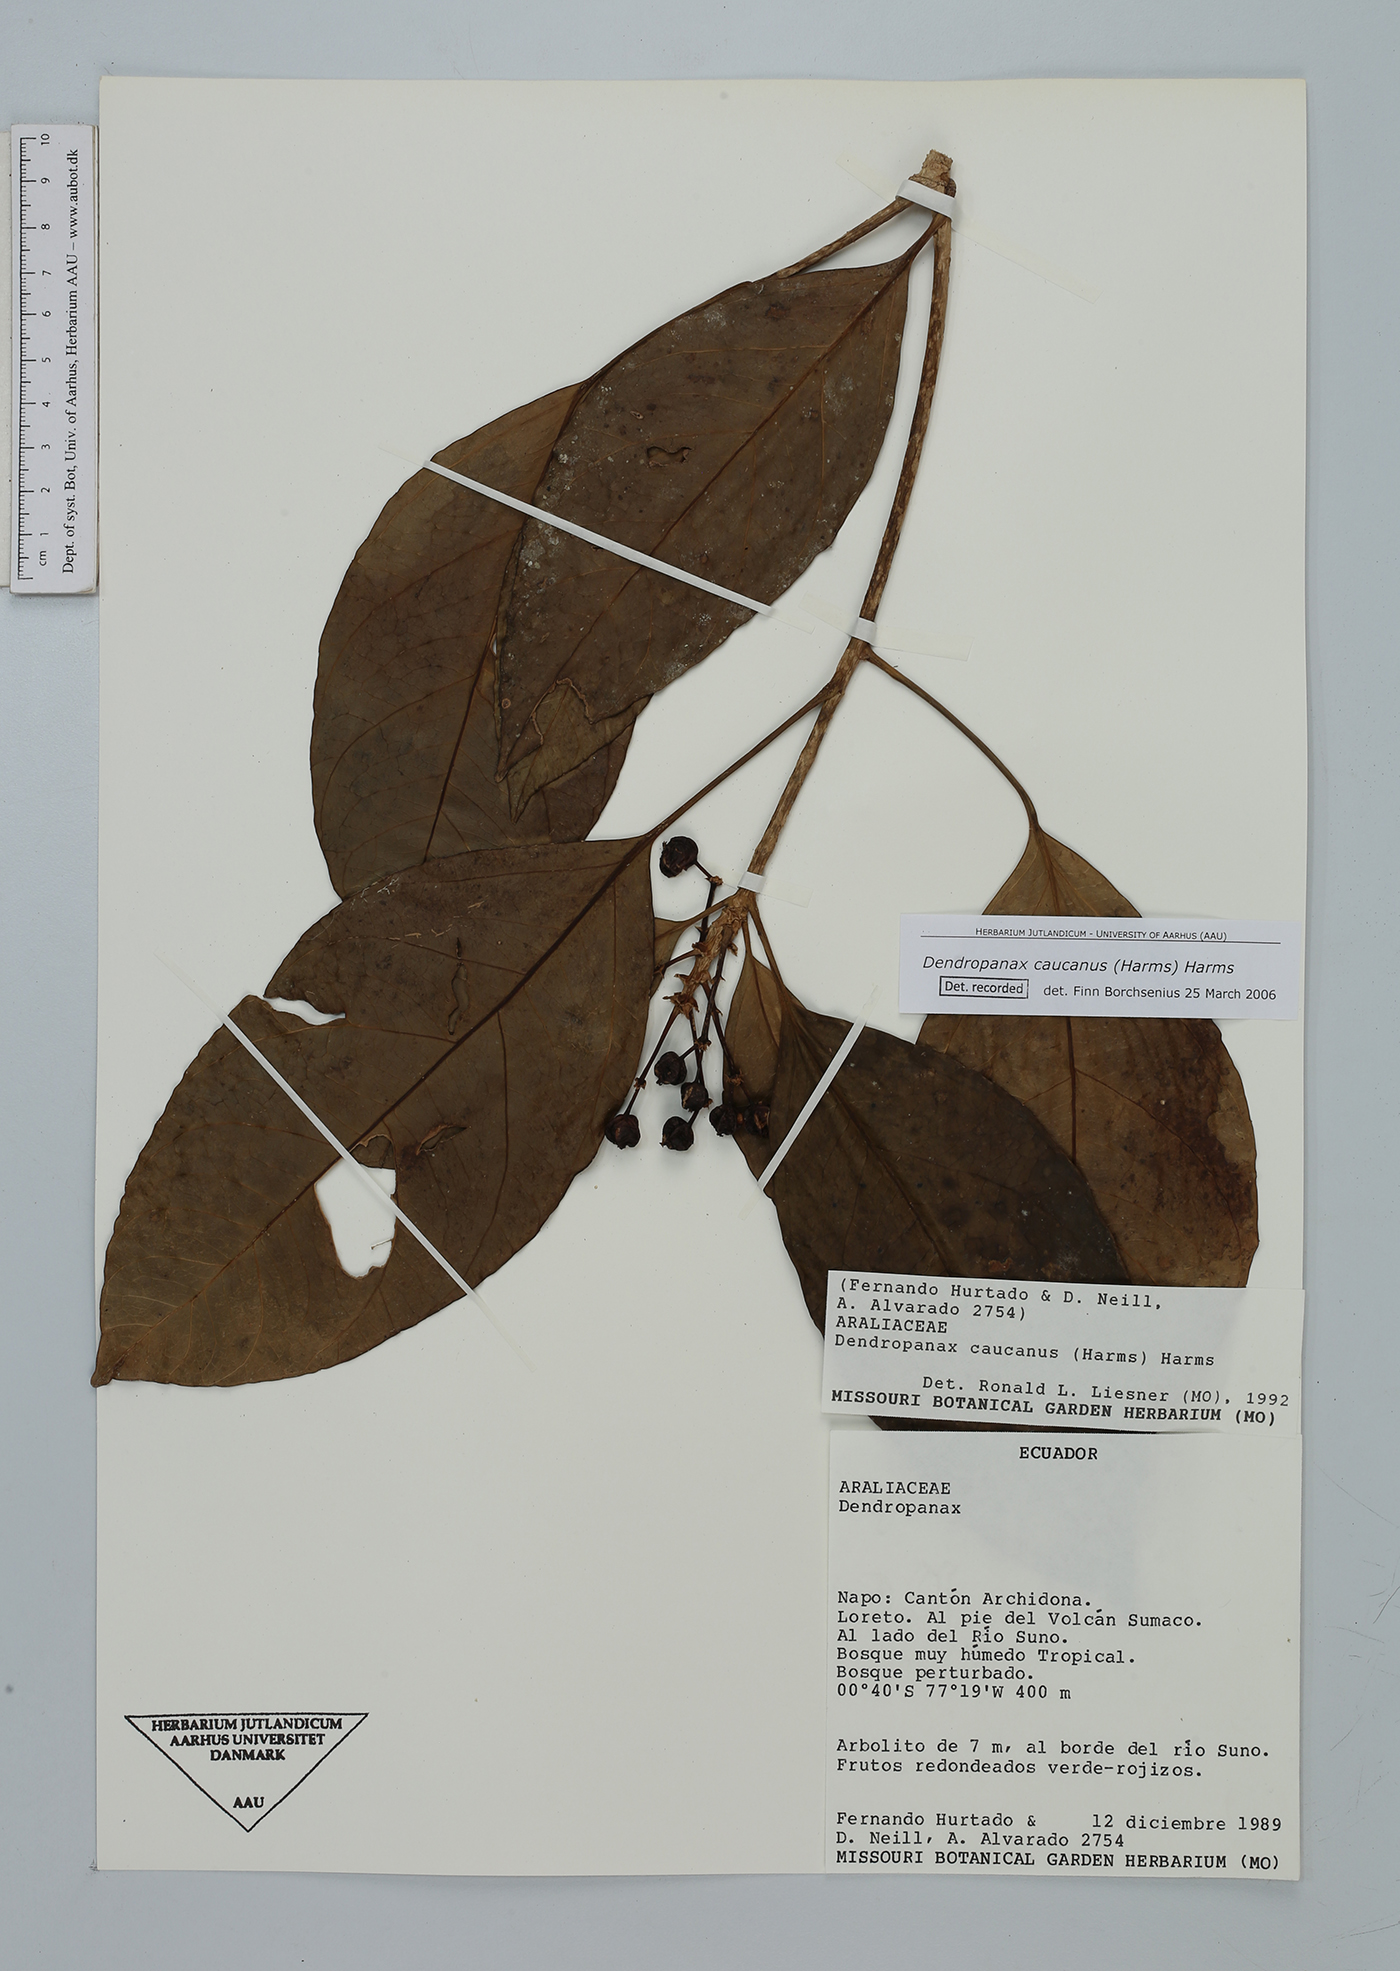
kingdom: Plantae
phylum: Tracheophyta
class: Magnoliopsida
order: Apiales
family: Araliaceae
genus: Dendropanax
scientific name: Dendropanax caucanus
